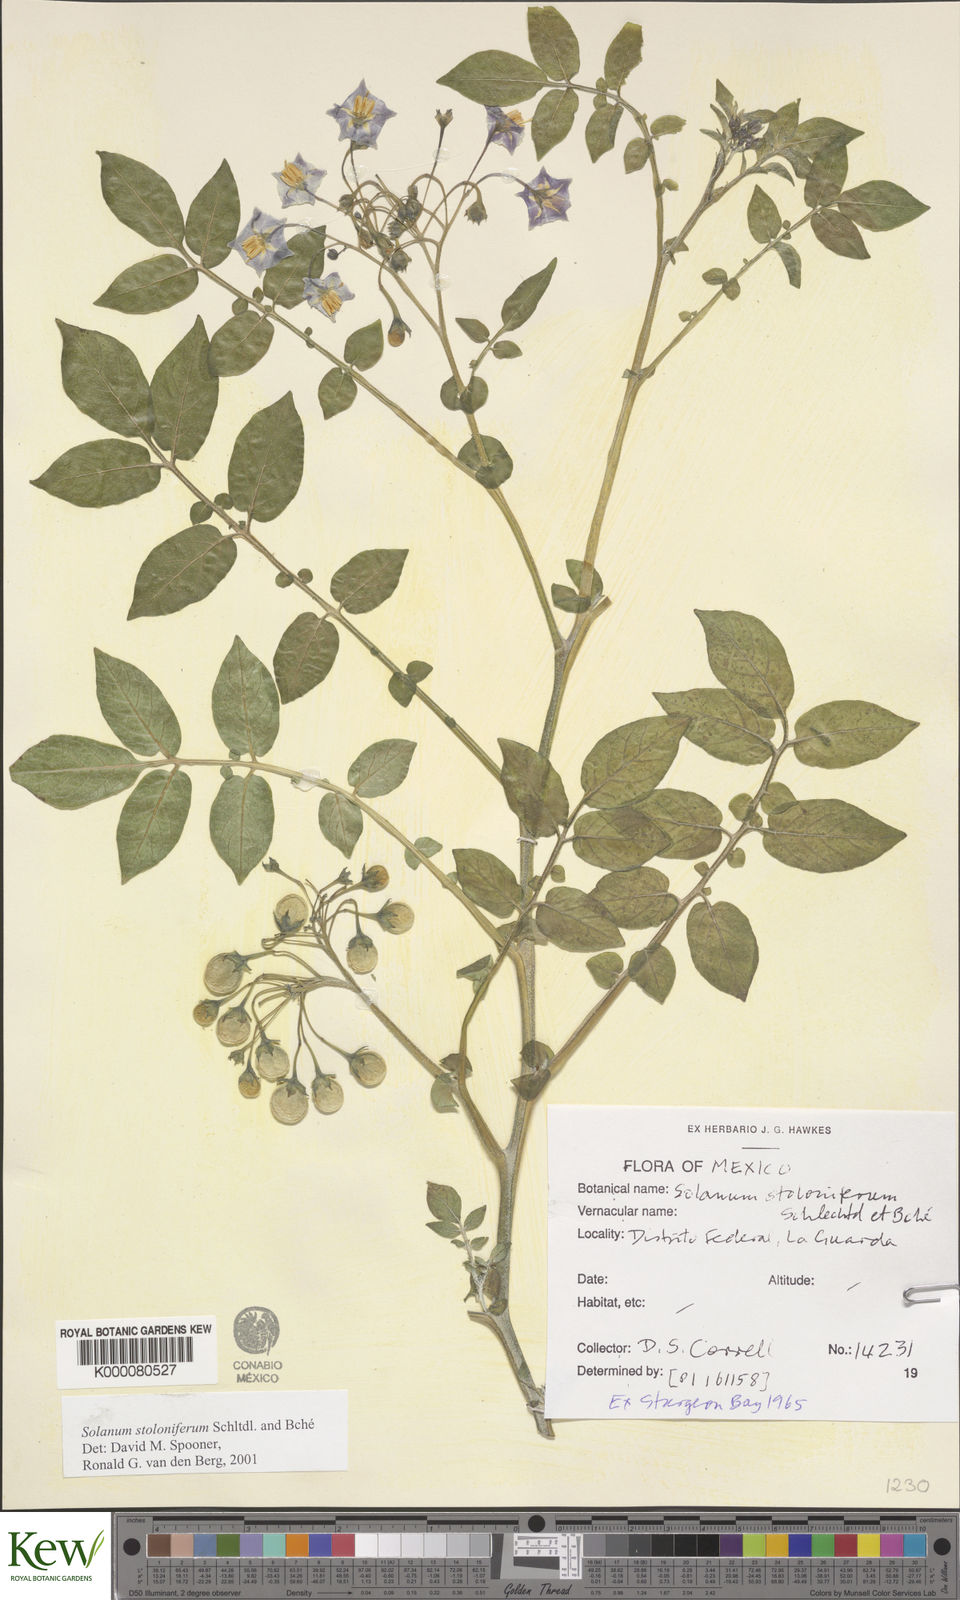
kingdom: Plantae
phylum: Tracheophyta
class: Magnoliopsida
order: Solanales
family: Solanaceae
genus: Solanum
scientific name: Solanum stoloniferum
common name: Fendler's nighshade
